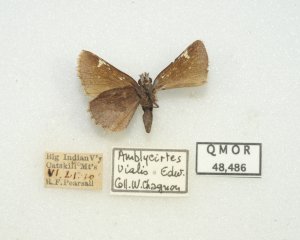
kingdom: Animalia
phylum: Arthropoda
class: Insecta
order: Lepidoptera
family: Hesperiidae
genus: Mastor
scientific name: Mastor vialis
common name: Common Roadside-Skipper
